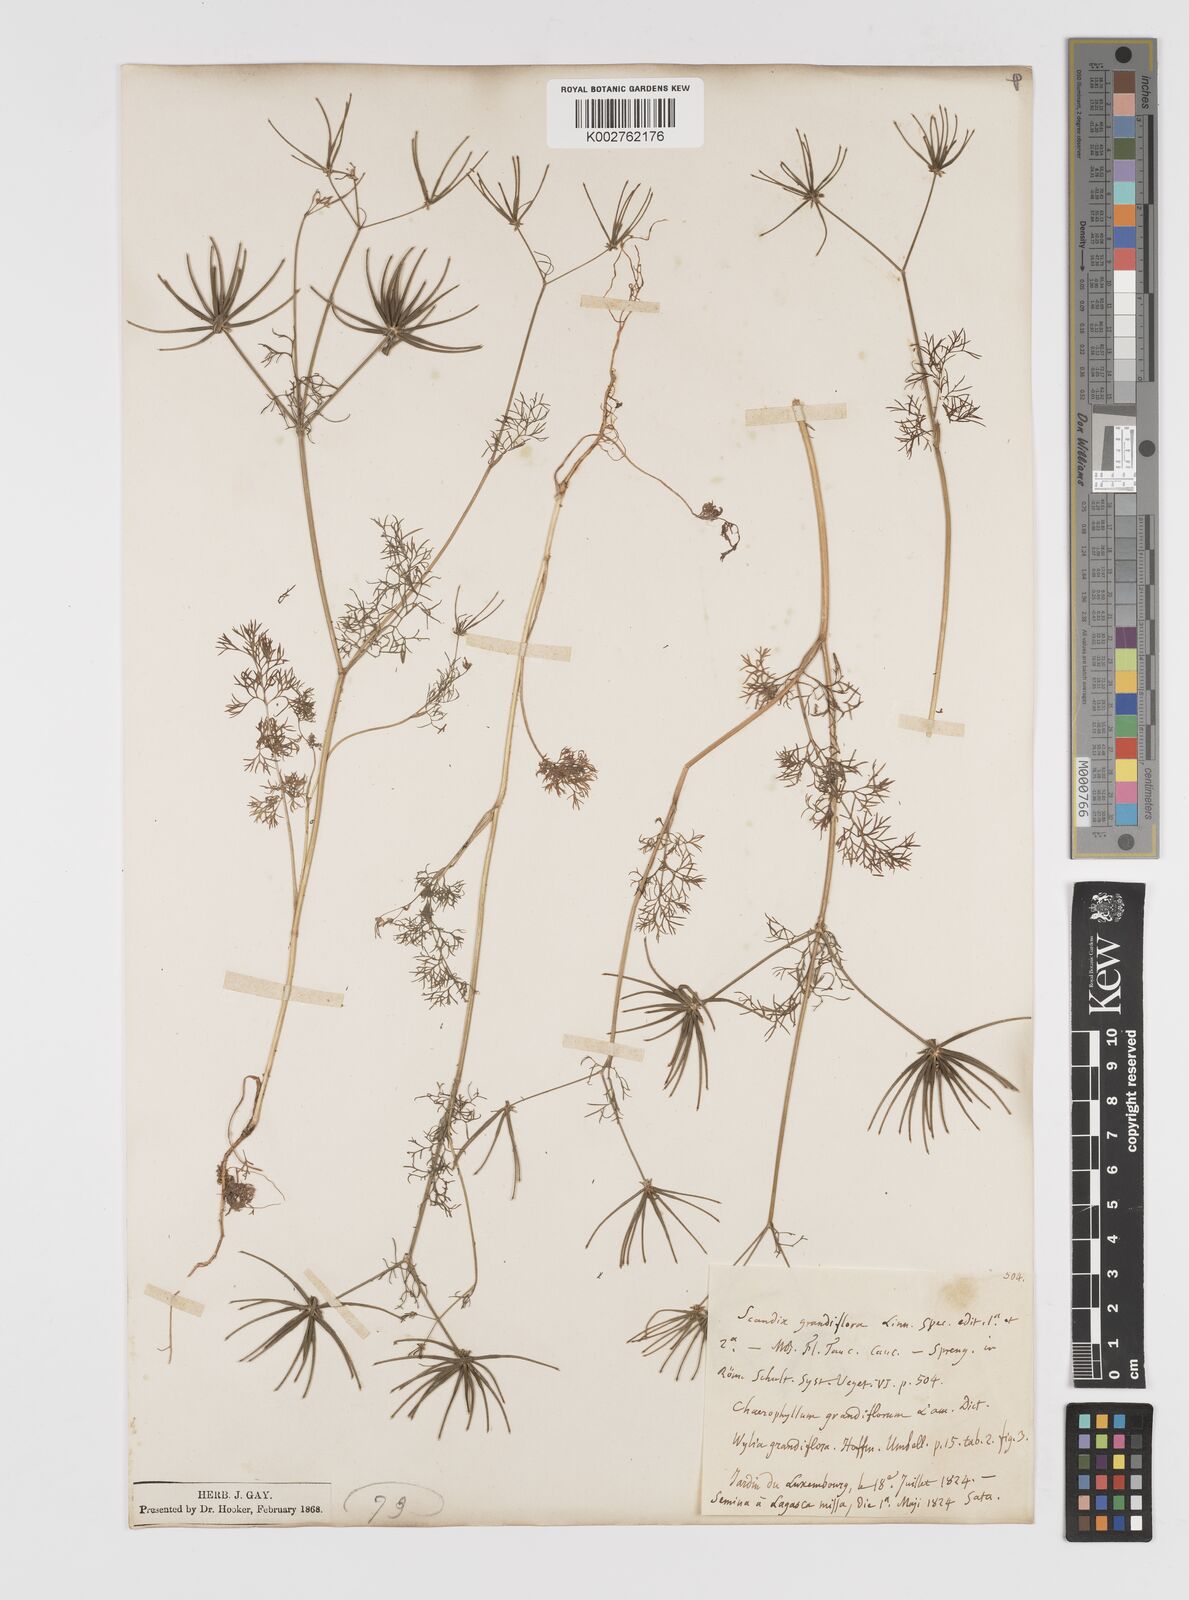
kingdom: Plantae
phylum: Tracheophyta
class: Magnoliopsida
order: Apiales
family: Apiaceae
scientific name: Apiaceae
